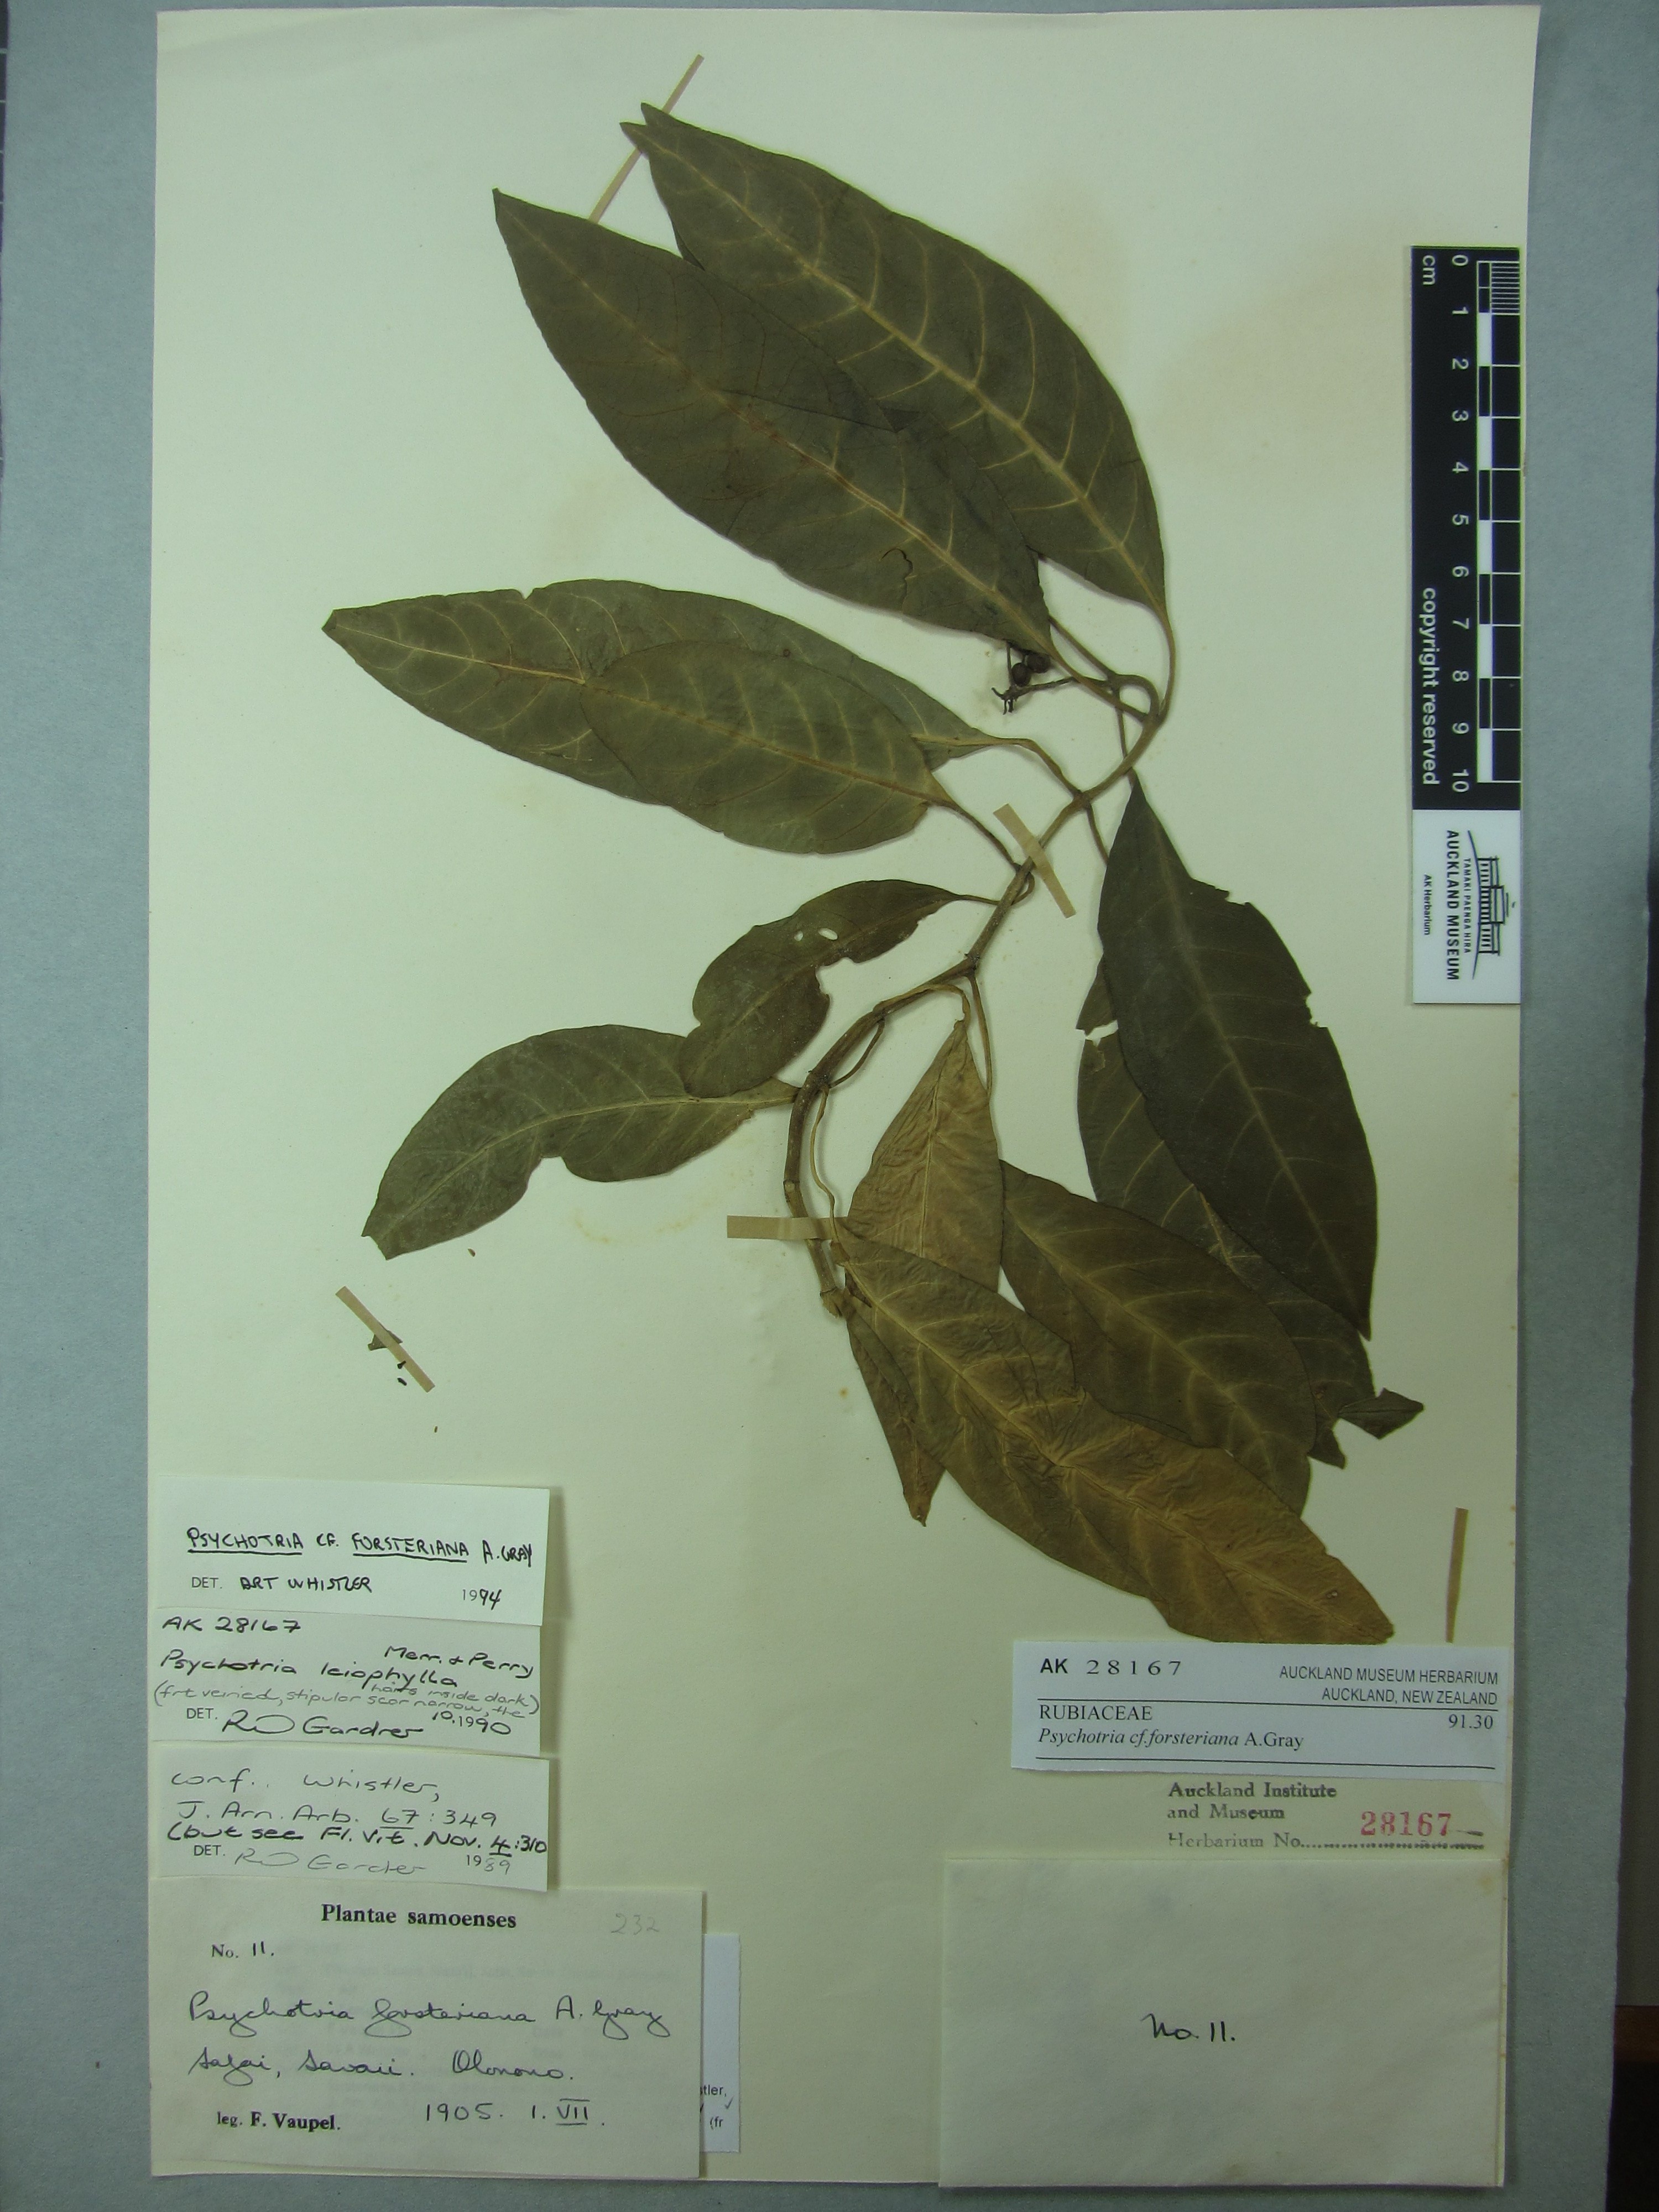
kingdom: Plantae
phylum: Tracheophyta
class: Magnoliopsida
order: Gentianales
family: Rubiaceae
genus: Eumachia
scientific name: Eumachia forsteriana
